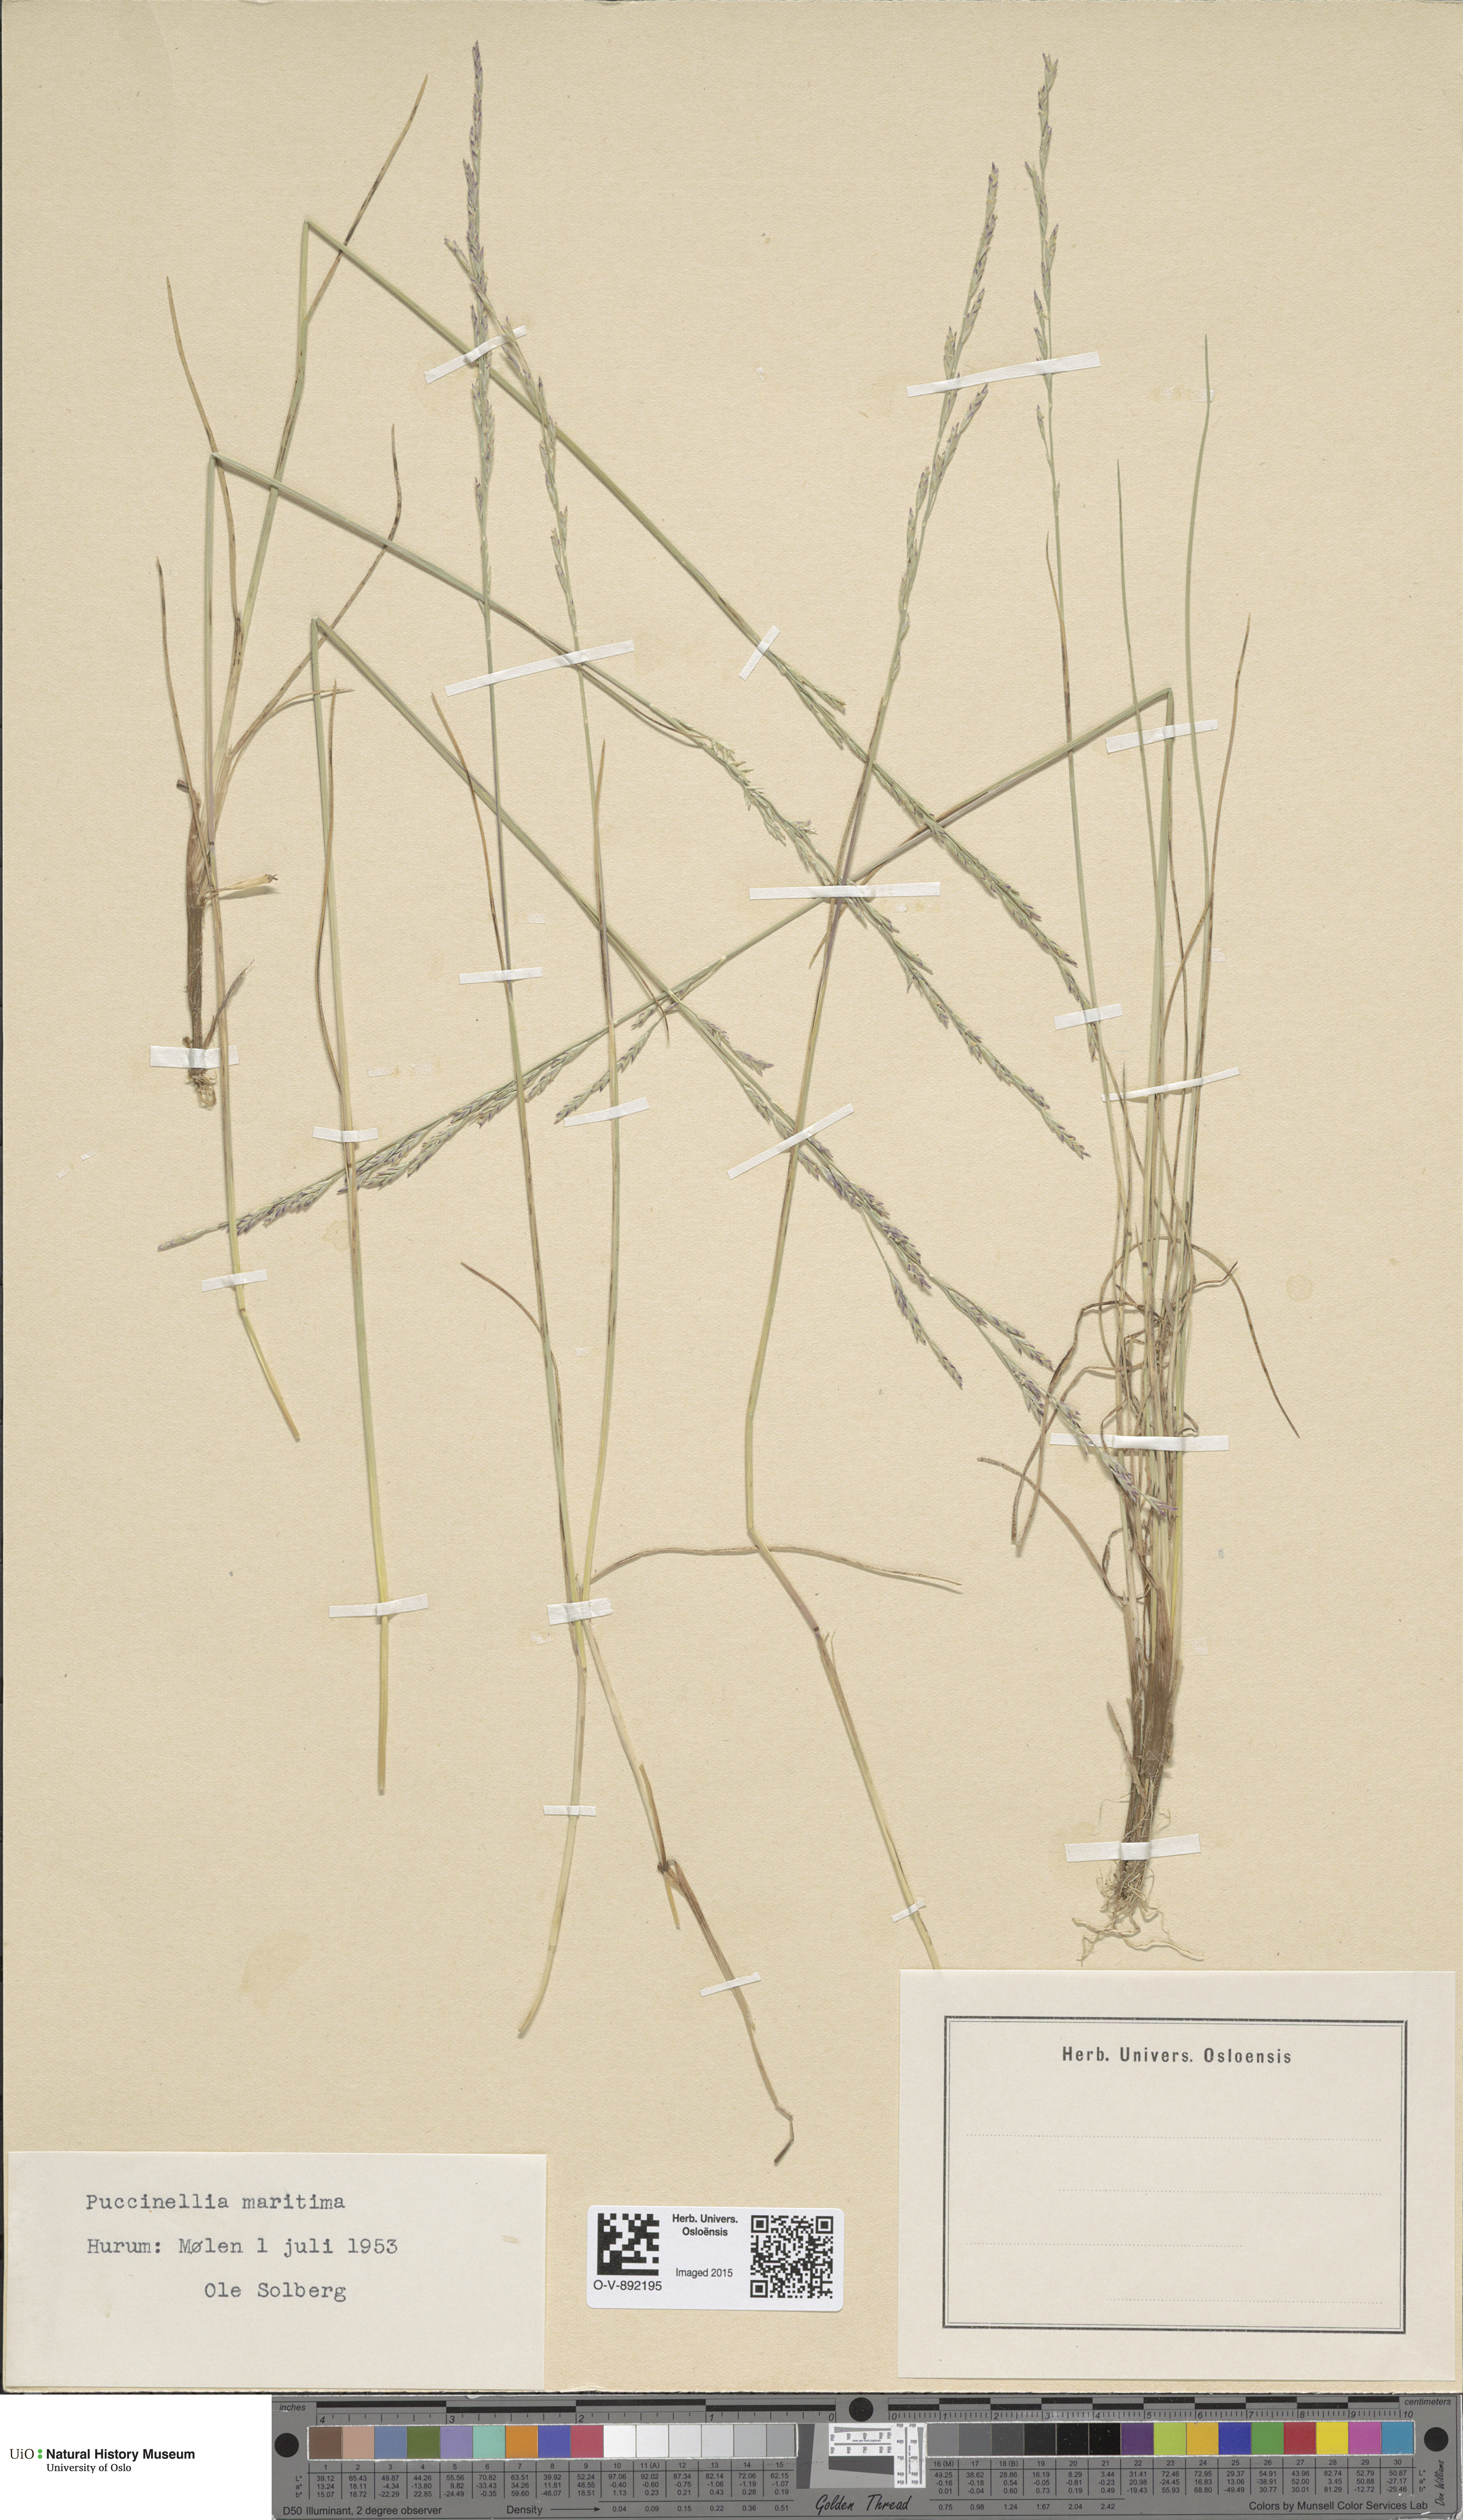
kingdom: Plantae
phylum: Tracheophyta
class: Liliopsida
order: Poales
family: Poaceae
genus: Puccinellia
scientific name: Puccinellia maritima
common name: Common saltmarsh grass
